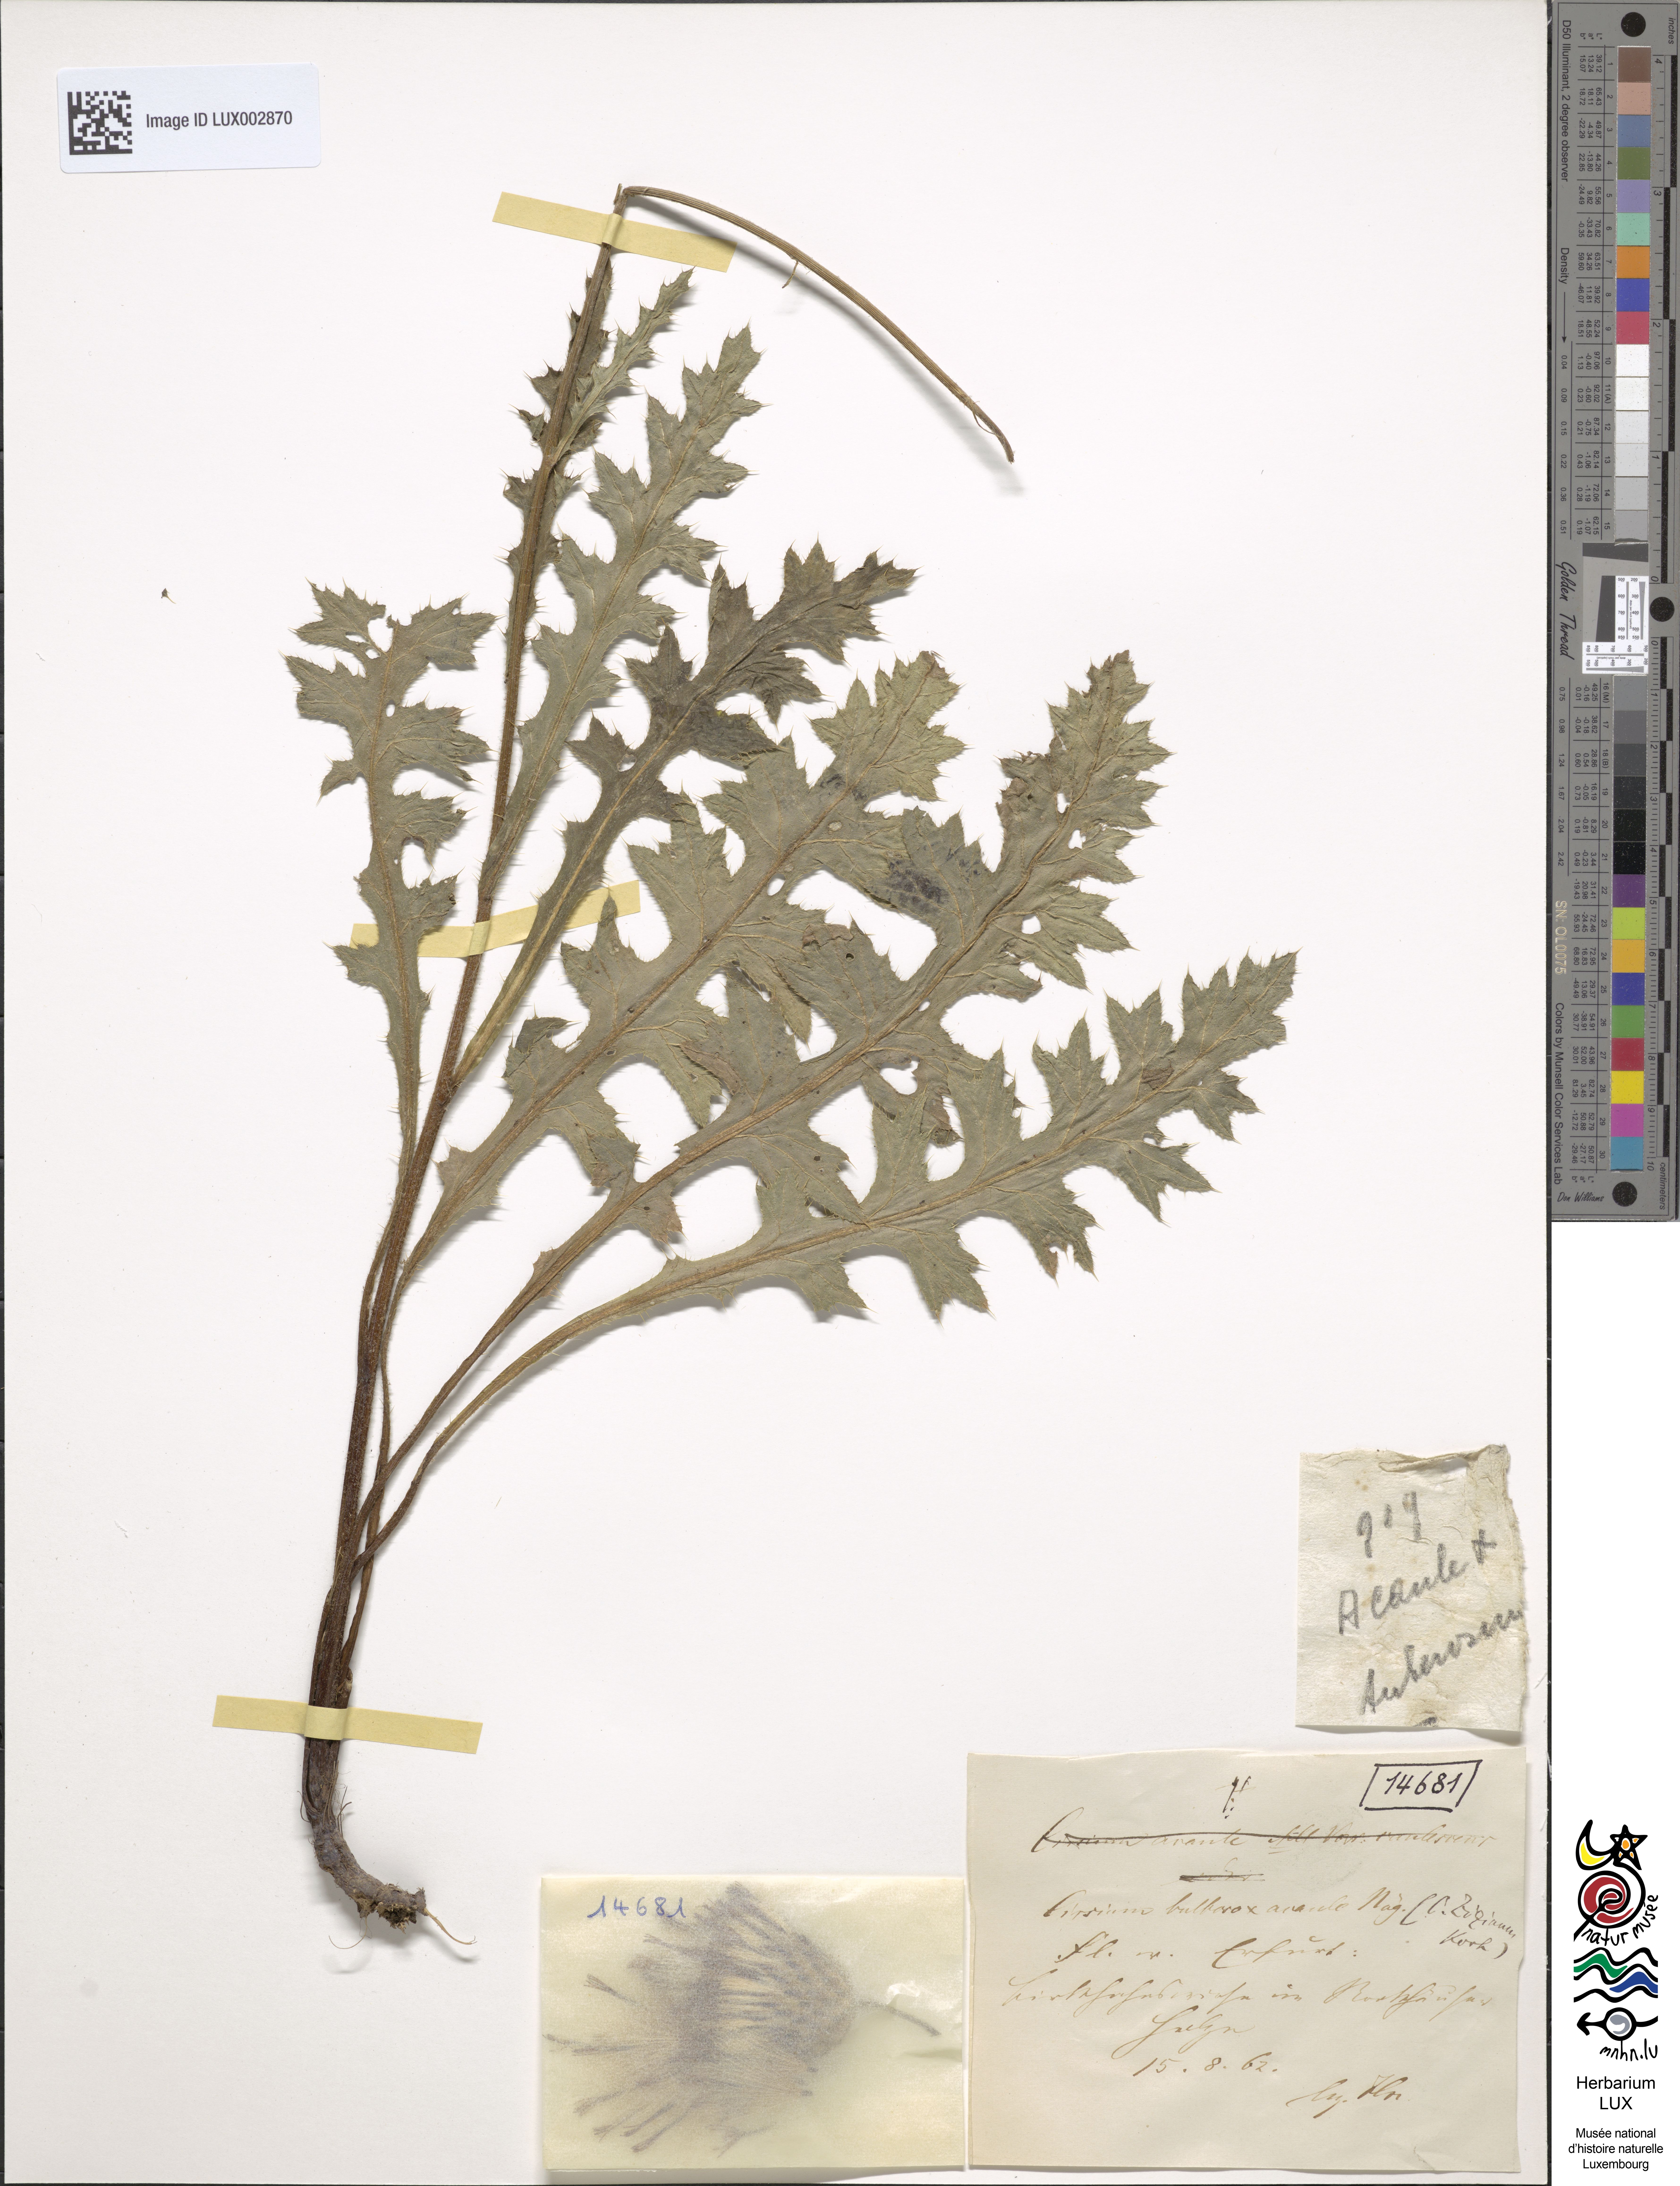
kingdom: Plantae
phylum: Tracheophyta
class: Magnoliopsida
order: Asterales
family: Asteraceae
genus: Cirsium
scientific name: Cirsium medium
